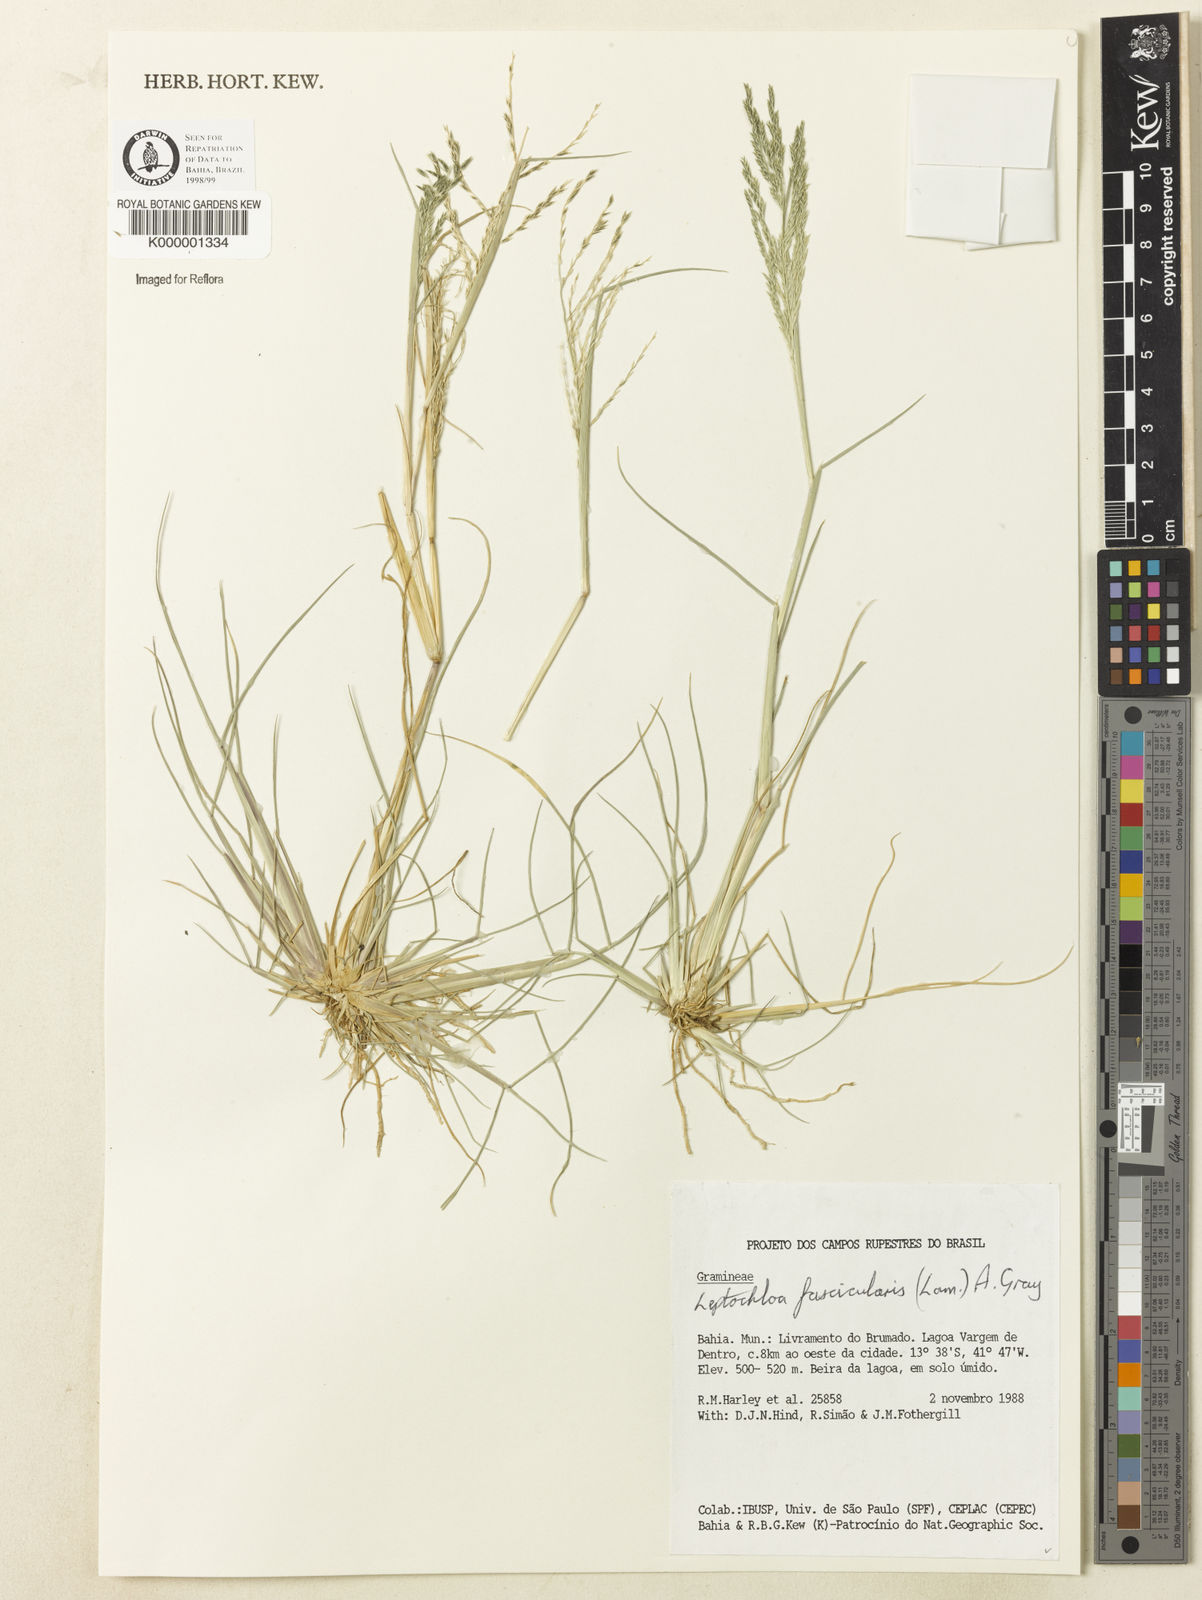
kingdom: Plantae
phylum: Tracheophyta
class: Liliopsida
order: Poales
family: Poaceae
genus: Diplachne
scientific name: Diplachne fusca
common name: Brown beetle grass
